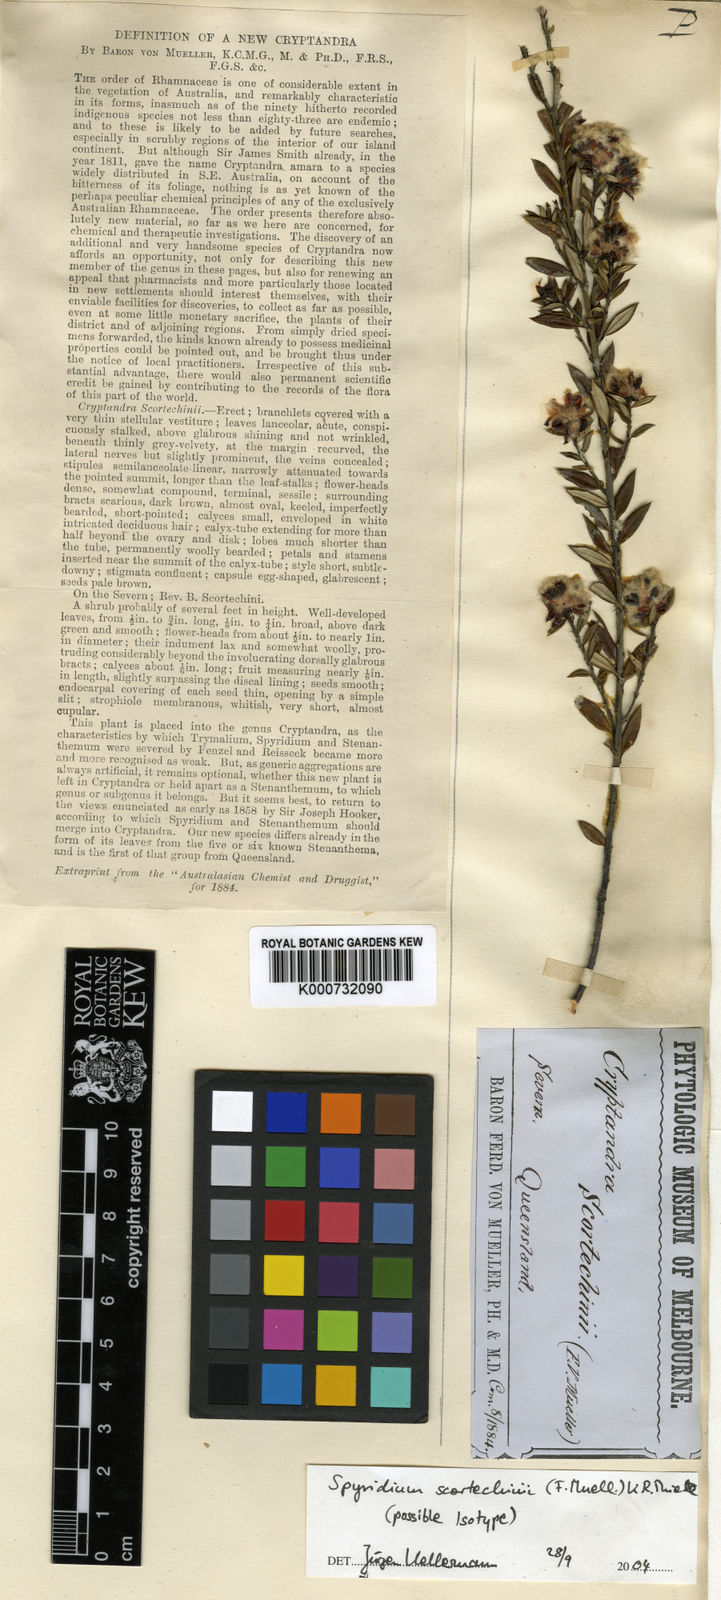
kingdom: Plantae
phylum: Tracheophyta
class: Magnoliopsida
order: Rosales
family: Rhamnaceae
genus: Spyridium
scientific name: Spyridium scortechinii
